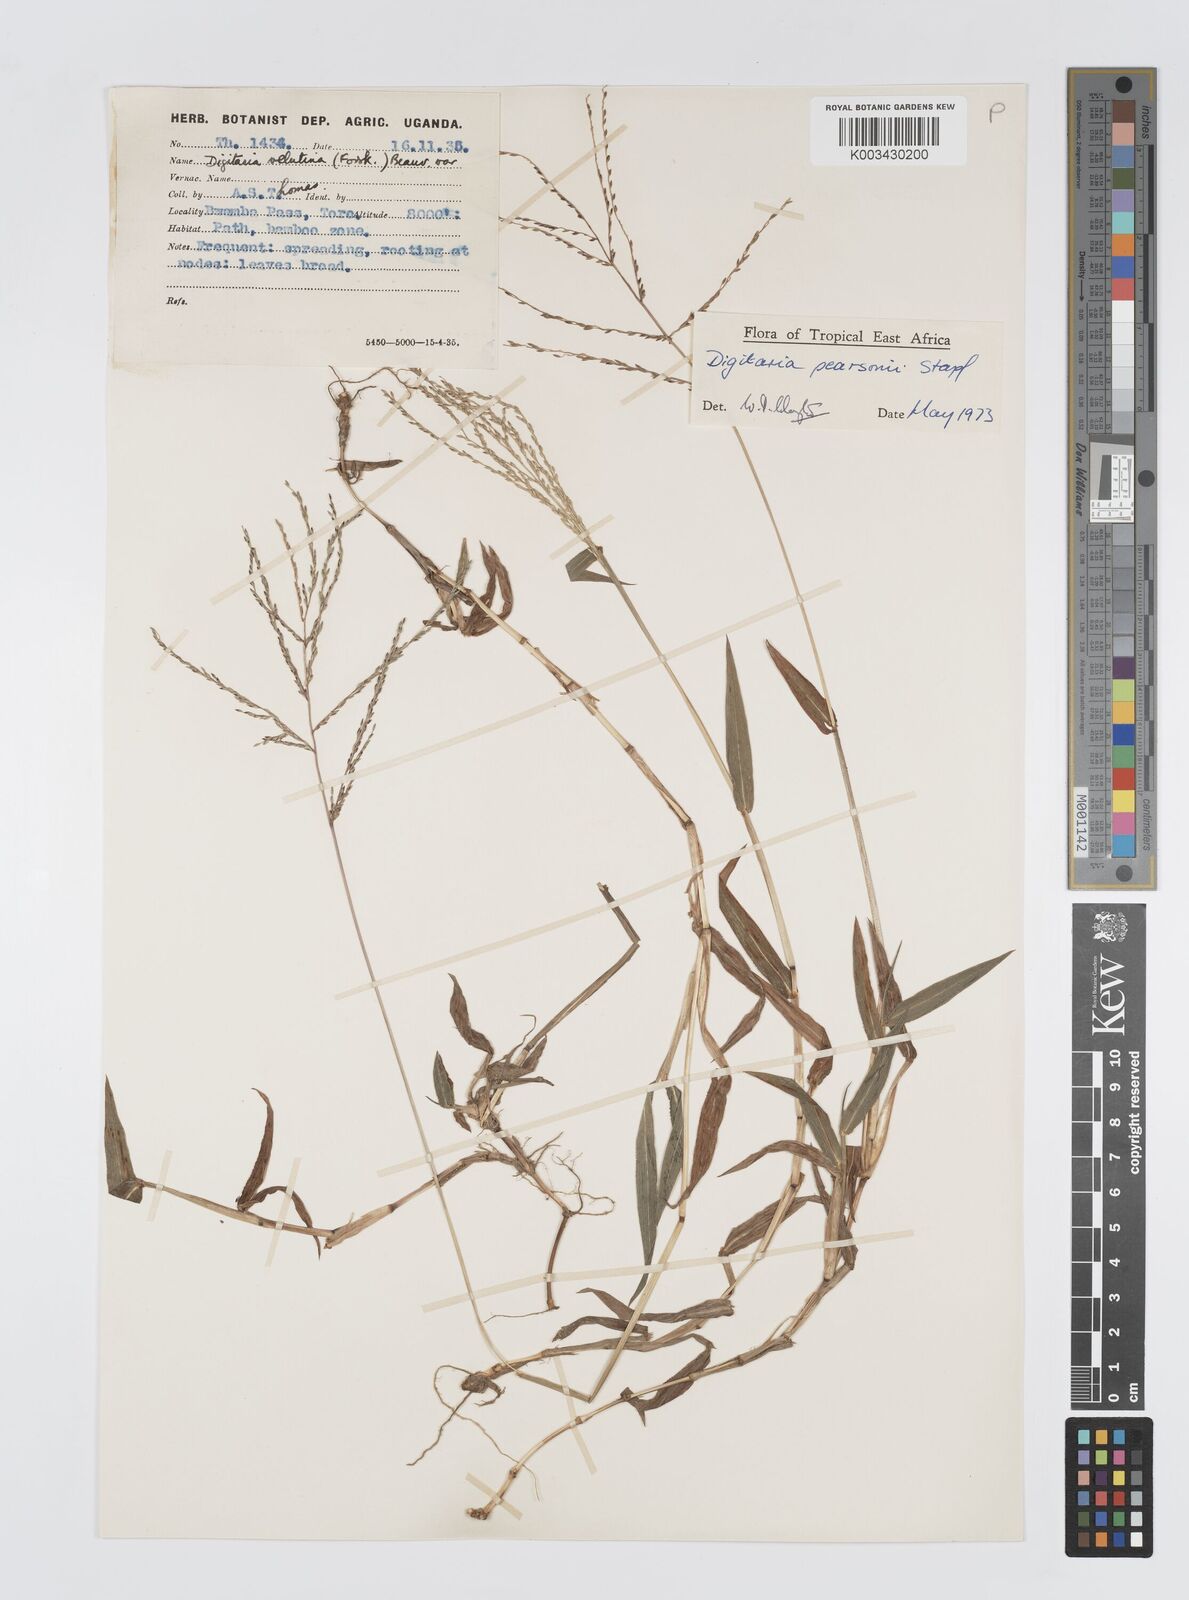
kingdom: Plantae
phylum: Tracheophyta
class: Liliopsida
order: Poales
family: Poaceae
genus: Digitaria
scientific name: Digitaria pearsonii
